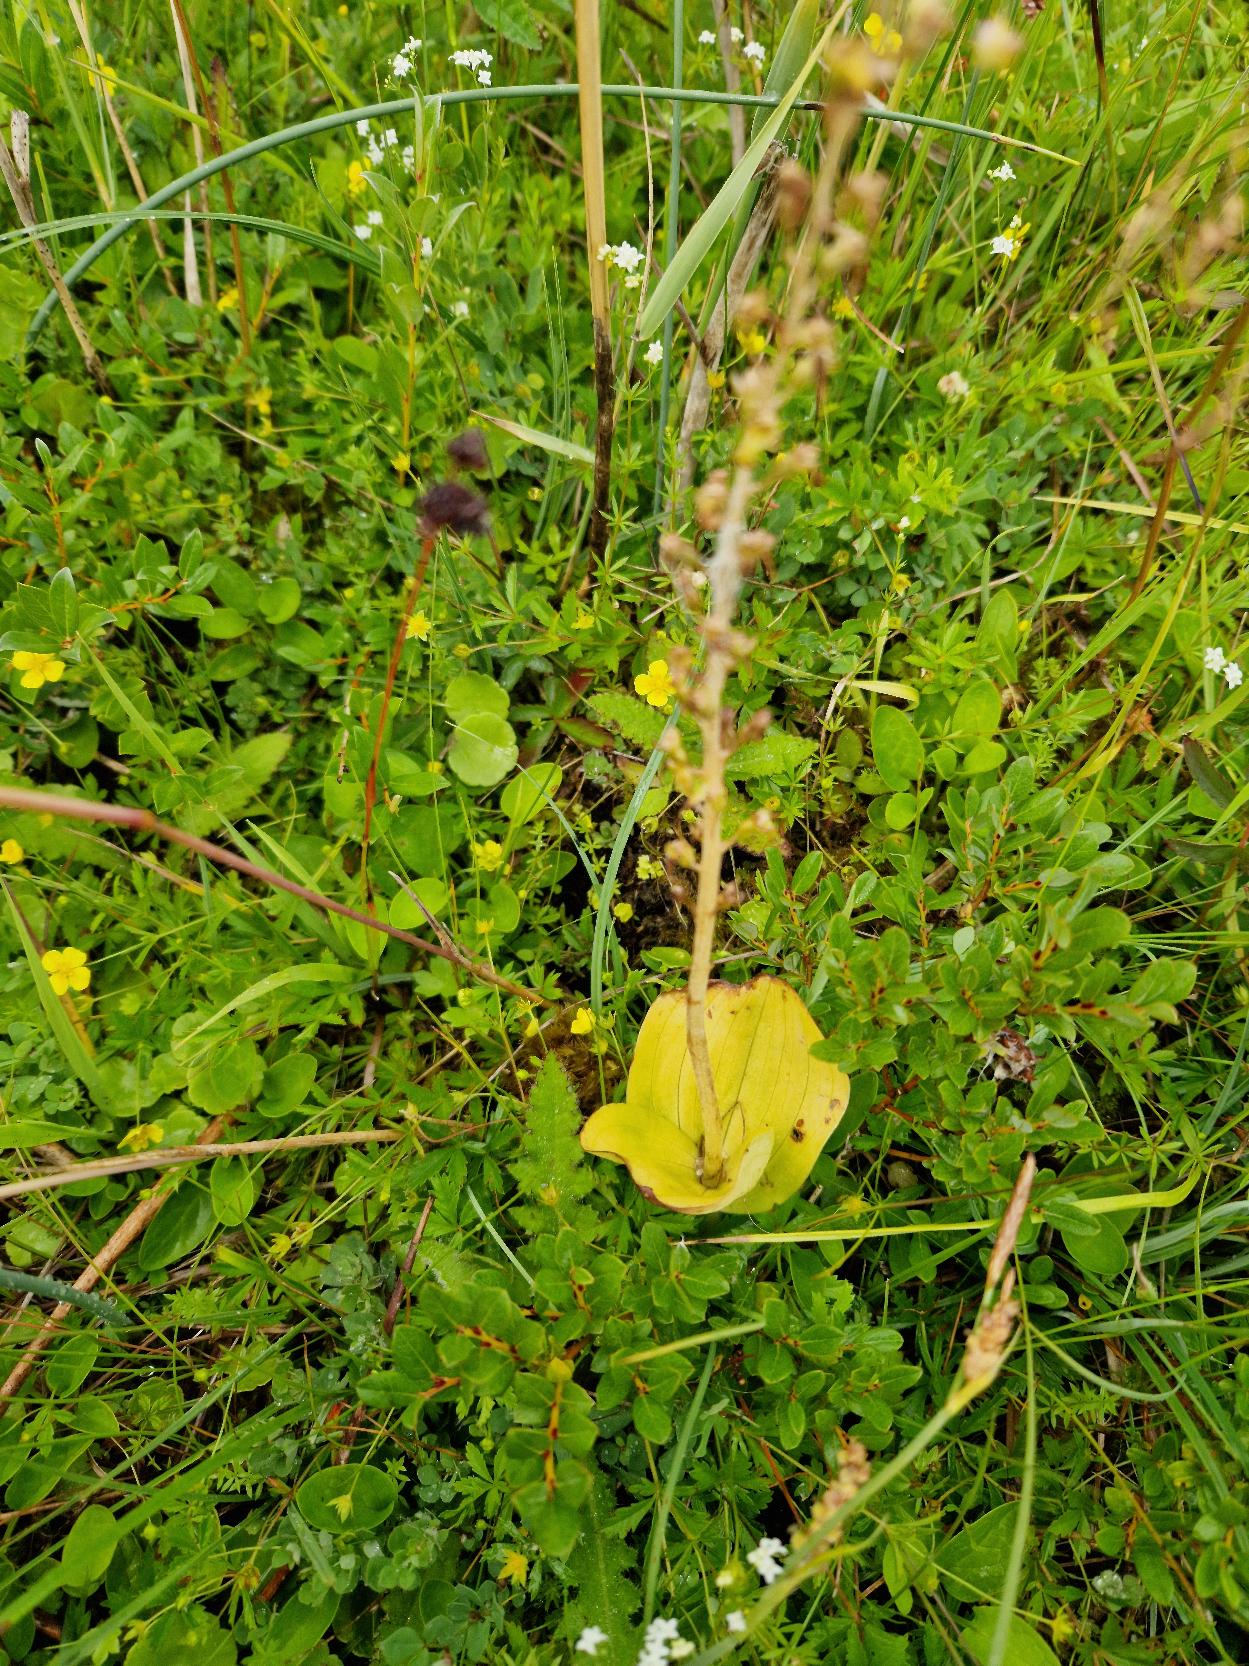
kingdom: Plantae
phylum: Tracheophyta
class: Liliopsida
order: Asparagales
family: Orchidaceae
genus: Neottia
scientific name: Neottia ovata
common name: Ægbladet fliglæbe
